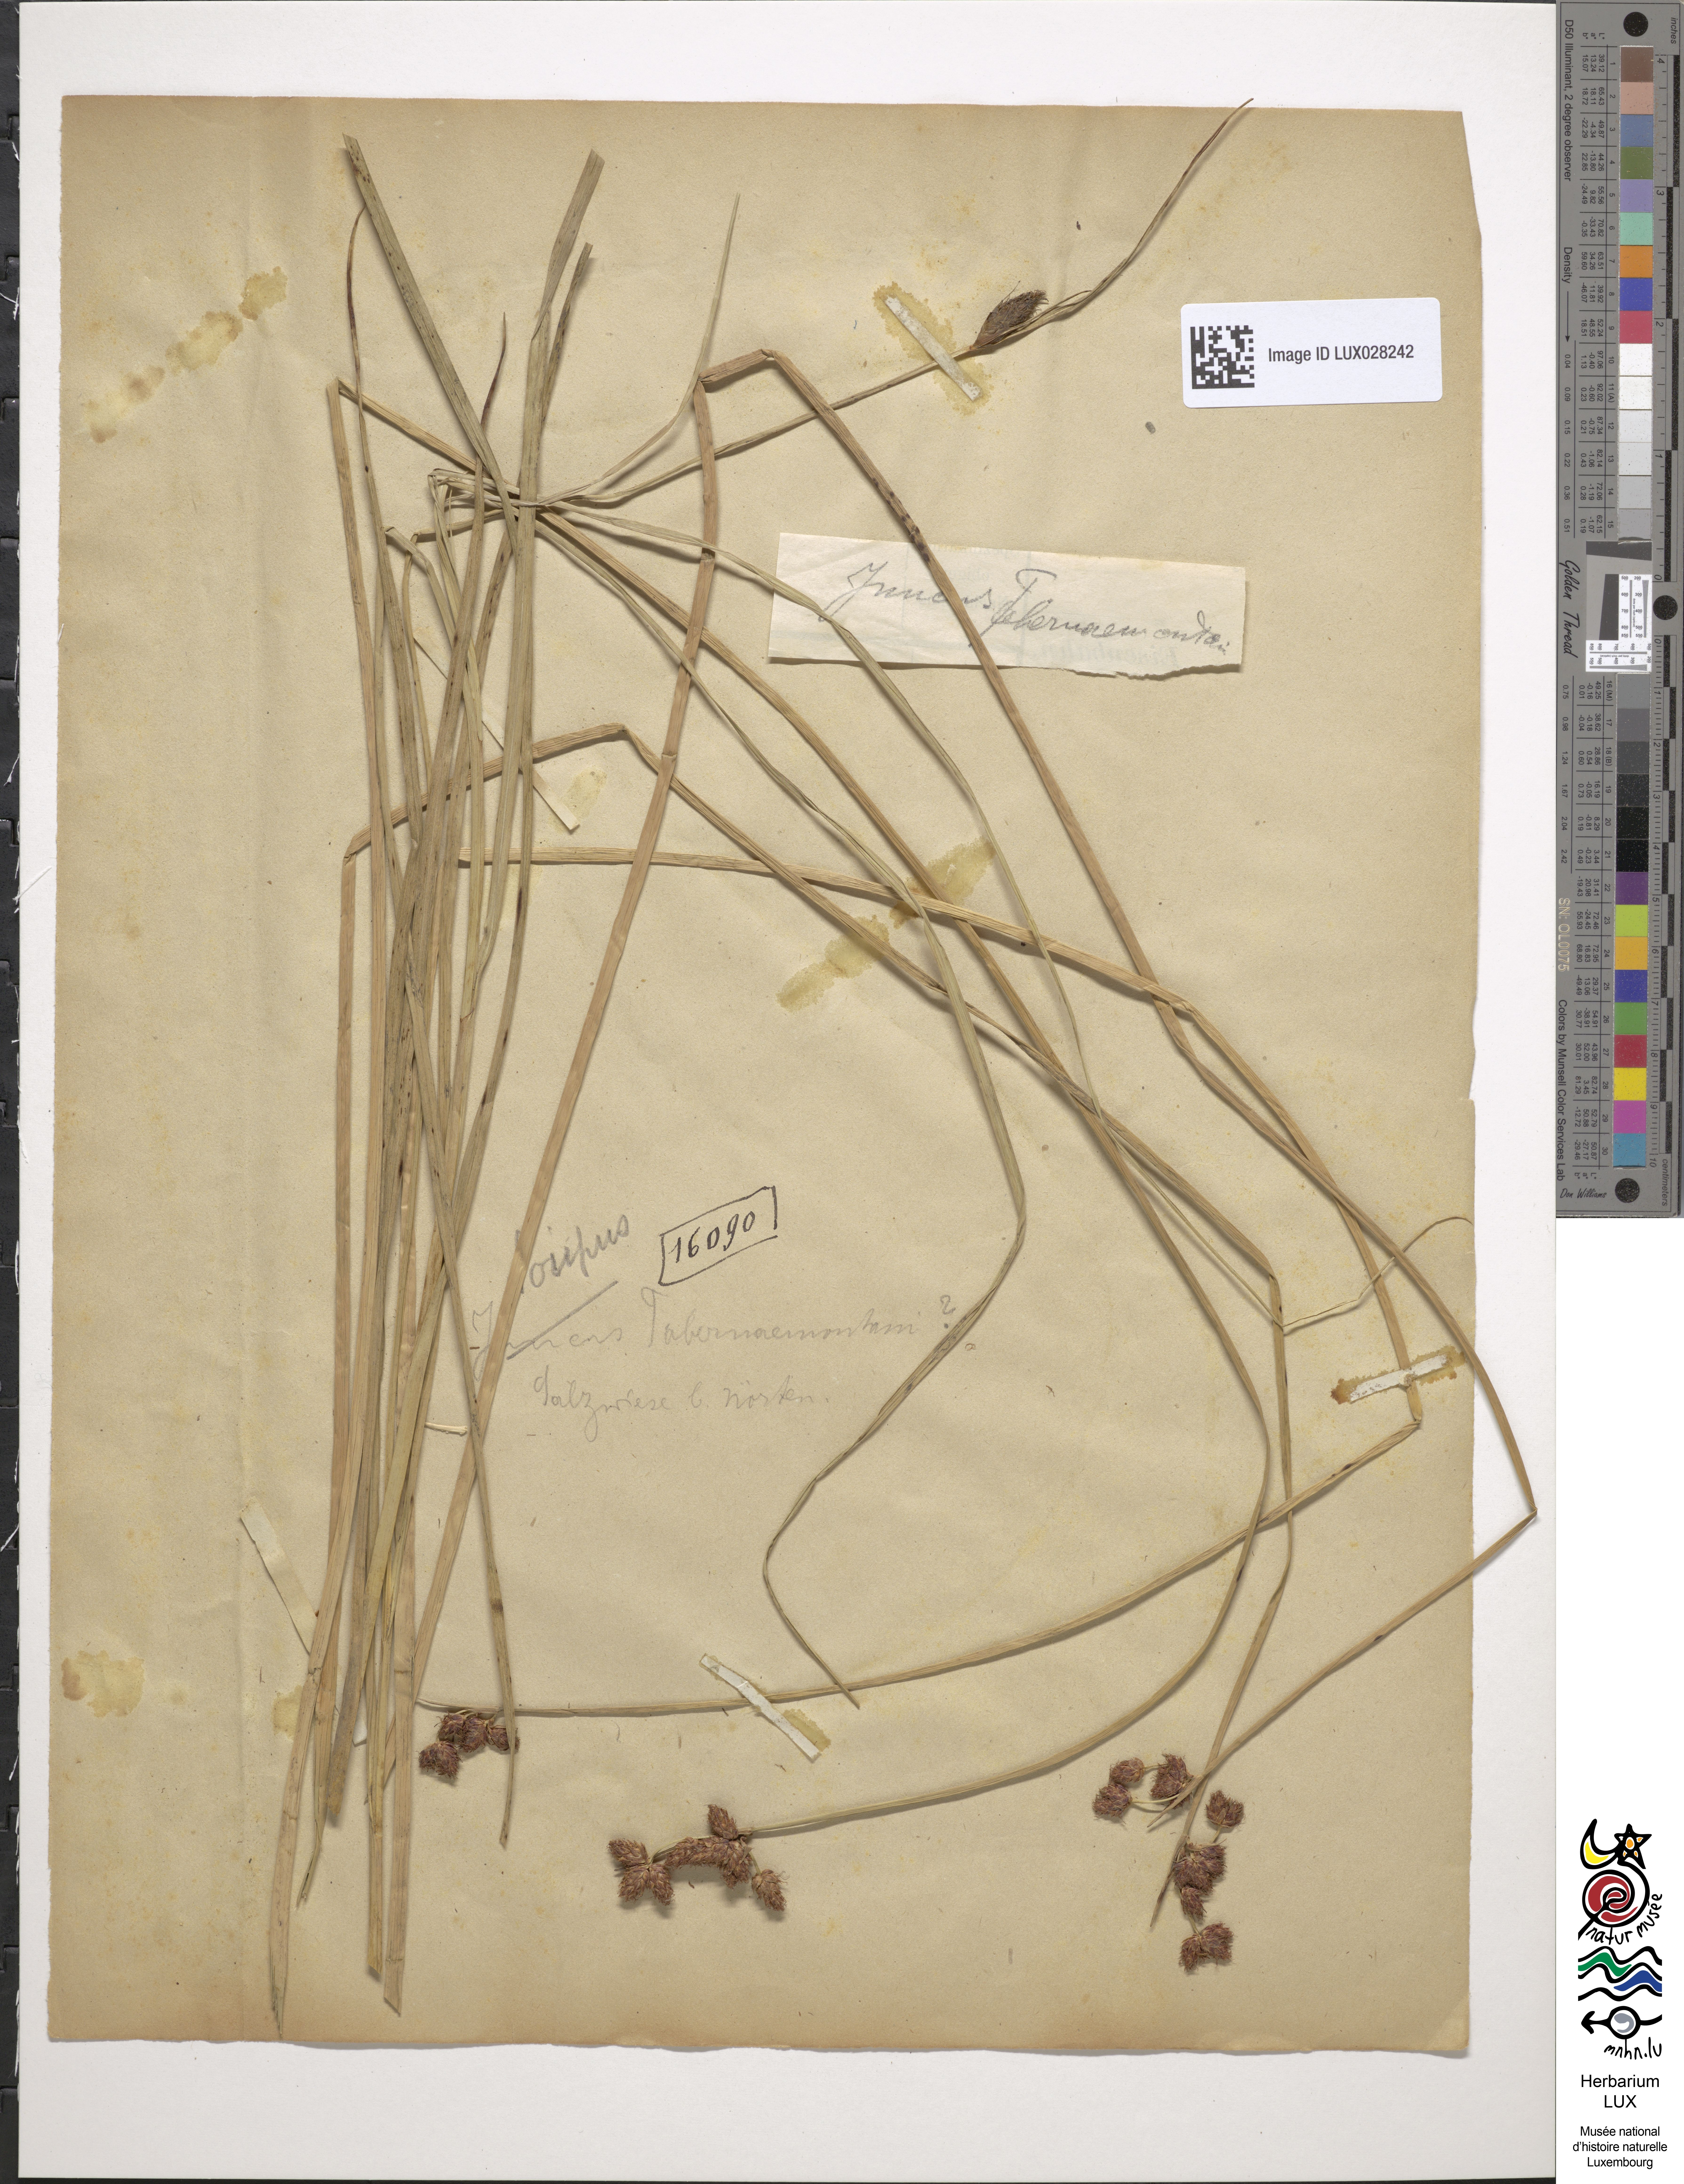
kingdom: Plantae
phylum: Tracheophyta
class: Liliopsida
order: Poales
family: Cyperaceae
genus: Schoenoplectus
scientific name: Schoenoplectus tabernaemontani
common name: Grey club-rush
